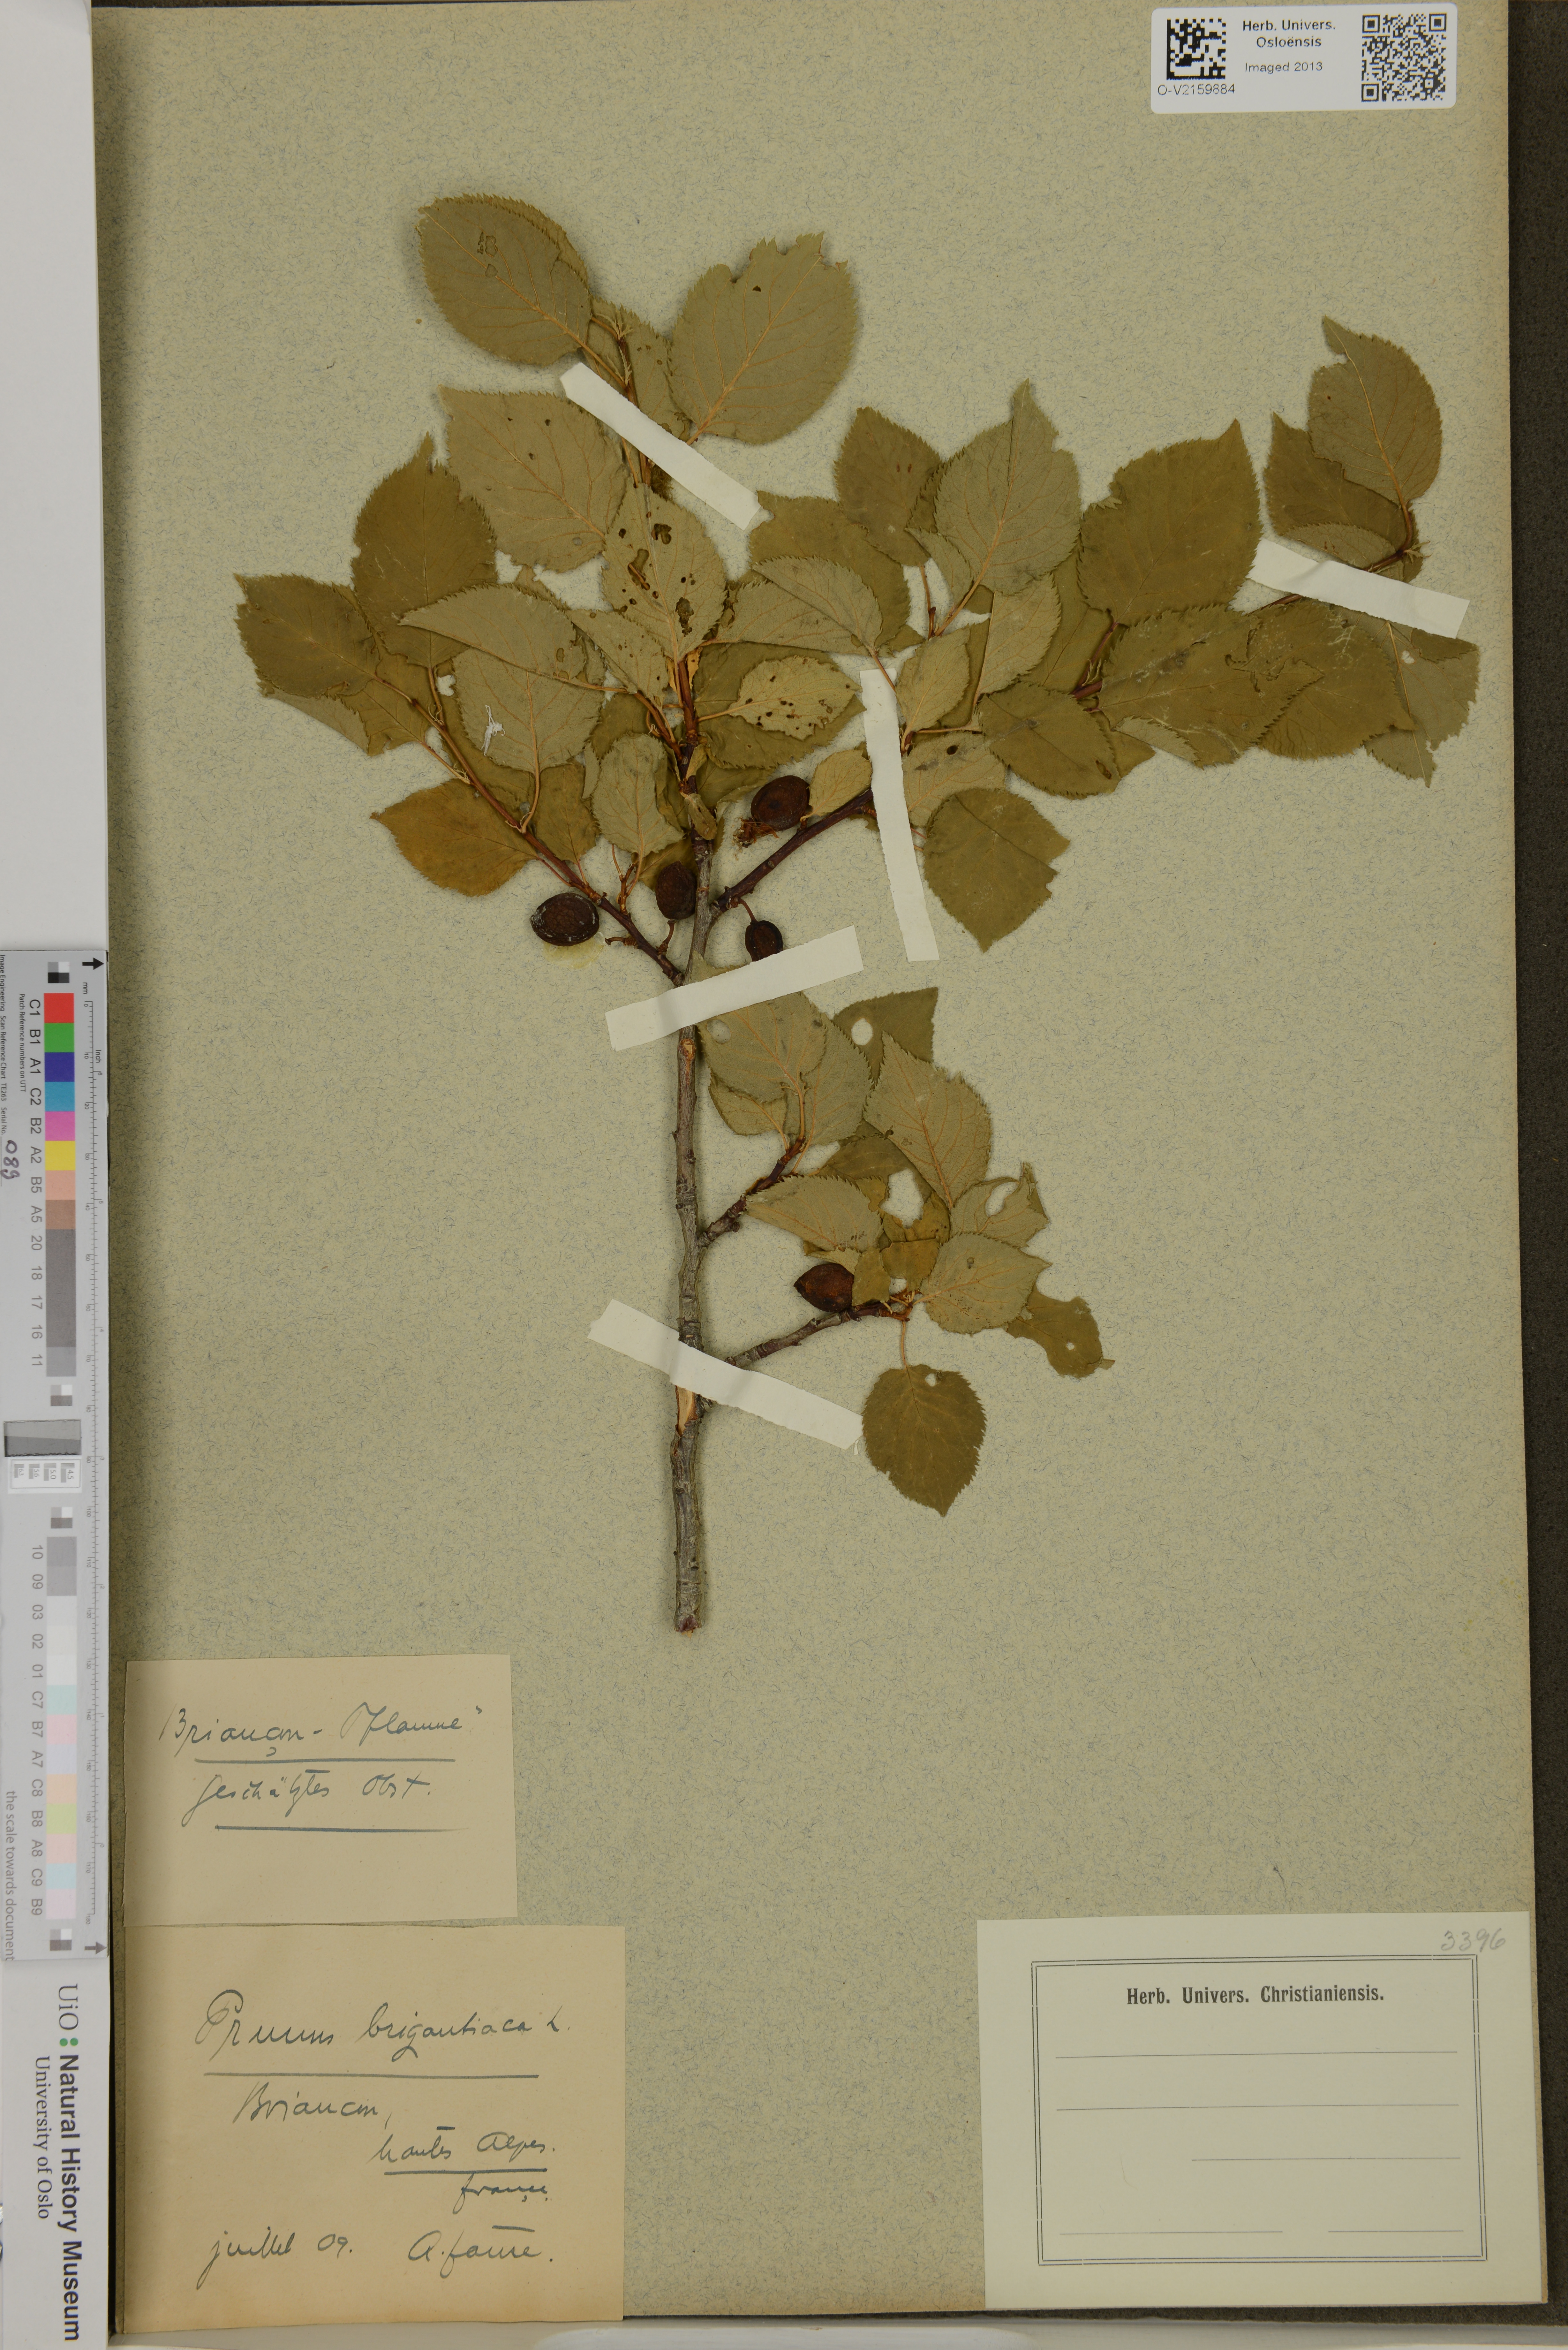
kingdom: Plantae
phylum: Tracheophyta
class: Magnoliopsida
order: Rosales
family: Rosaceae
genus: Prunus
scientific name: Prunus brigantina
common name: Briançon apricot
